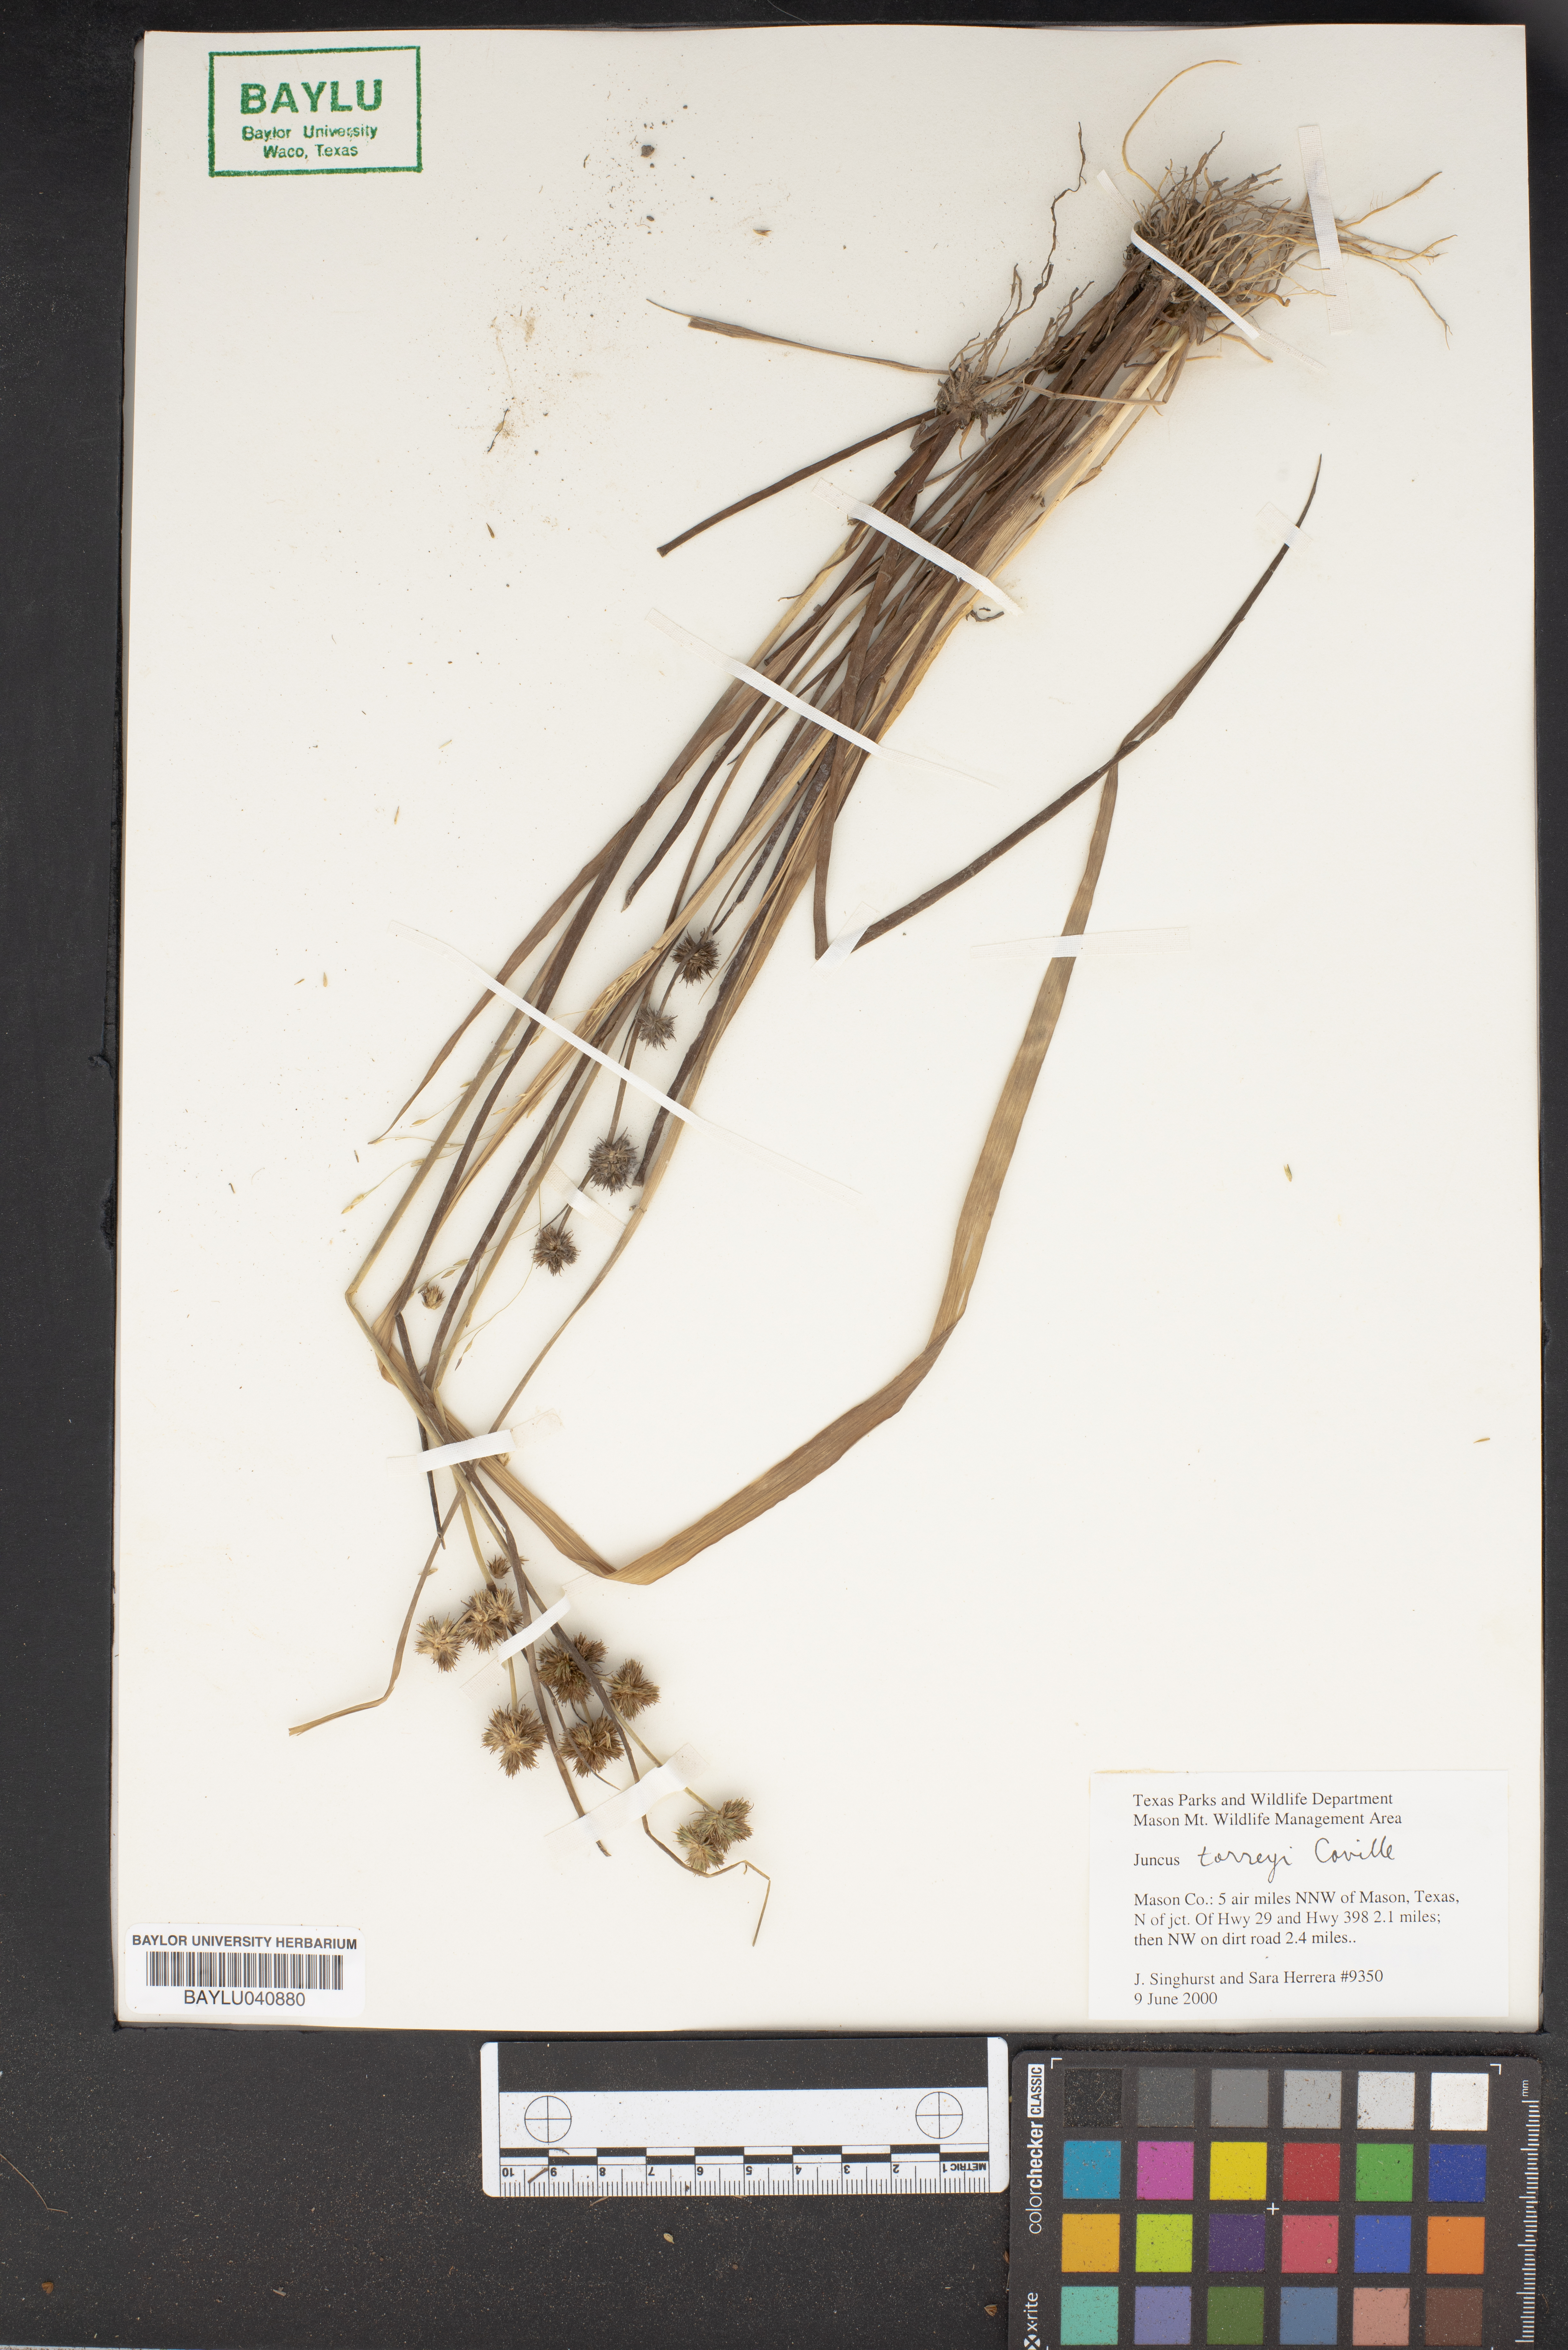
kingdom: Plantae
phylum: Tracheophyta
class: Liliopsida
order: Poales
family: Juncaceae
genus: Juncus
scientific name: Juncus torreyi
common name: Torrey's rush
